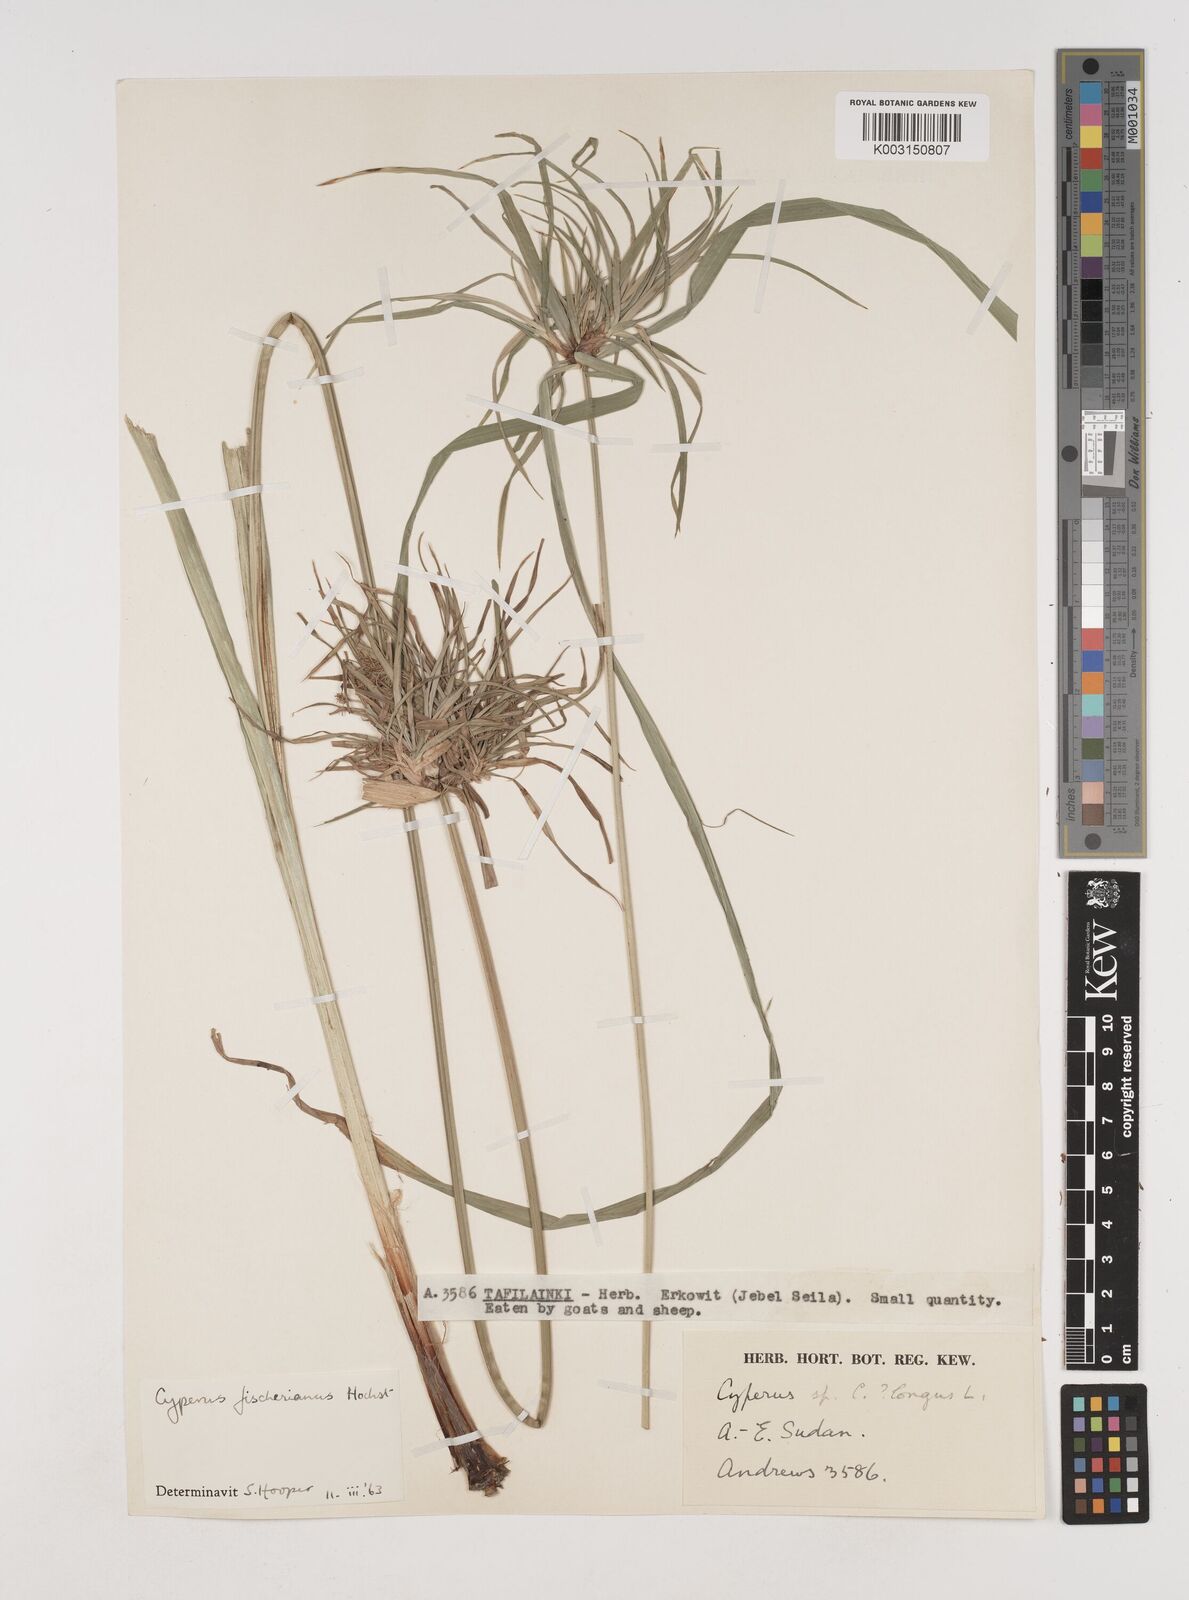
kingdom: Plantae
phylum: Tracheophyta
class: Liliopsida
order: Poales
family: Cyperaceae
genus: Cyperus
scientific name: Cyperus fischerianus
